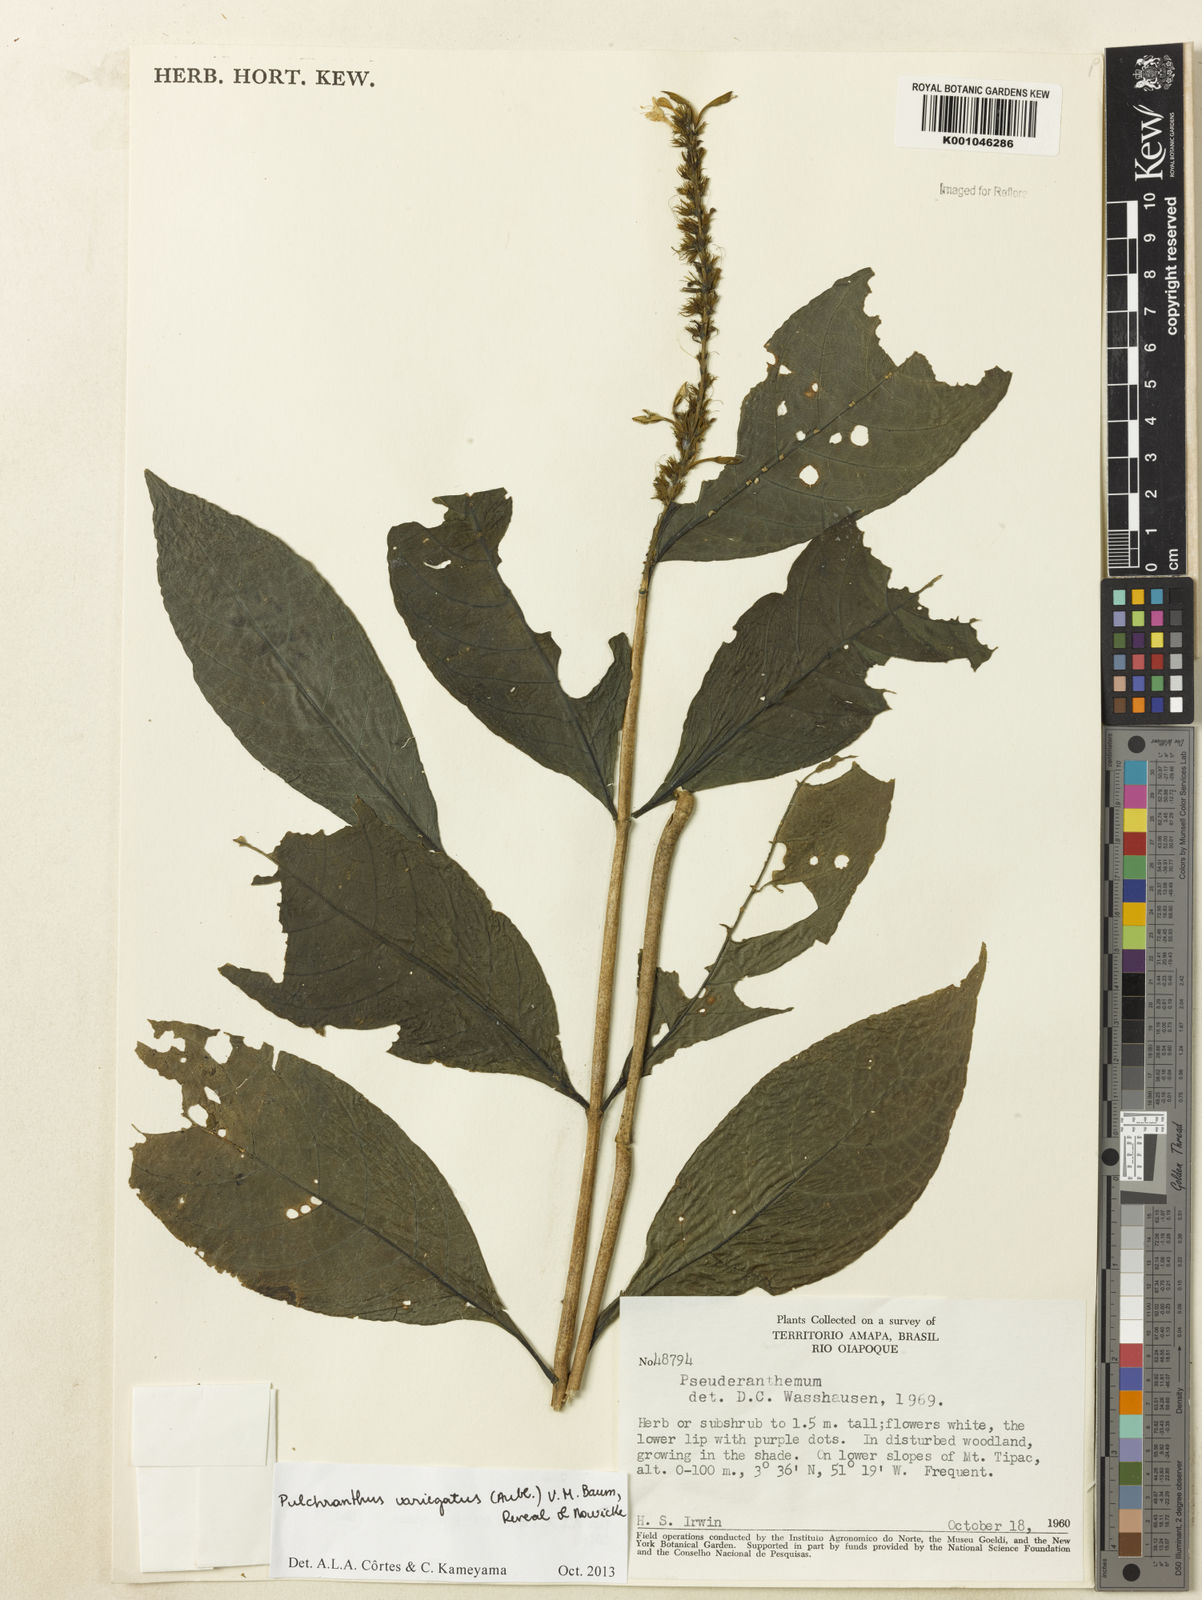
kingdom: Plantae
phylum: Tracheophyta
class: Magnoliopsida
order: Lamiales
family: Acanthaceae
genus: Pulchranthus
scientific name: Pulchranthus
